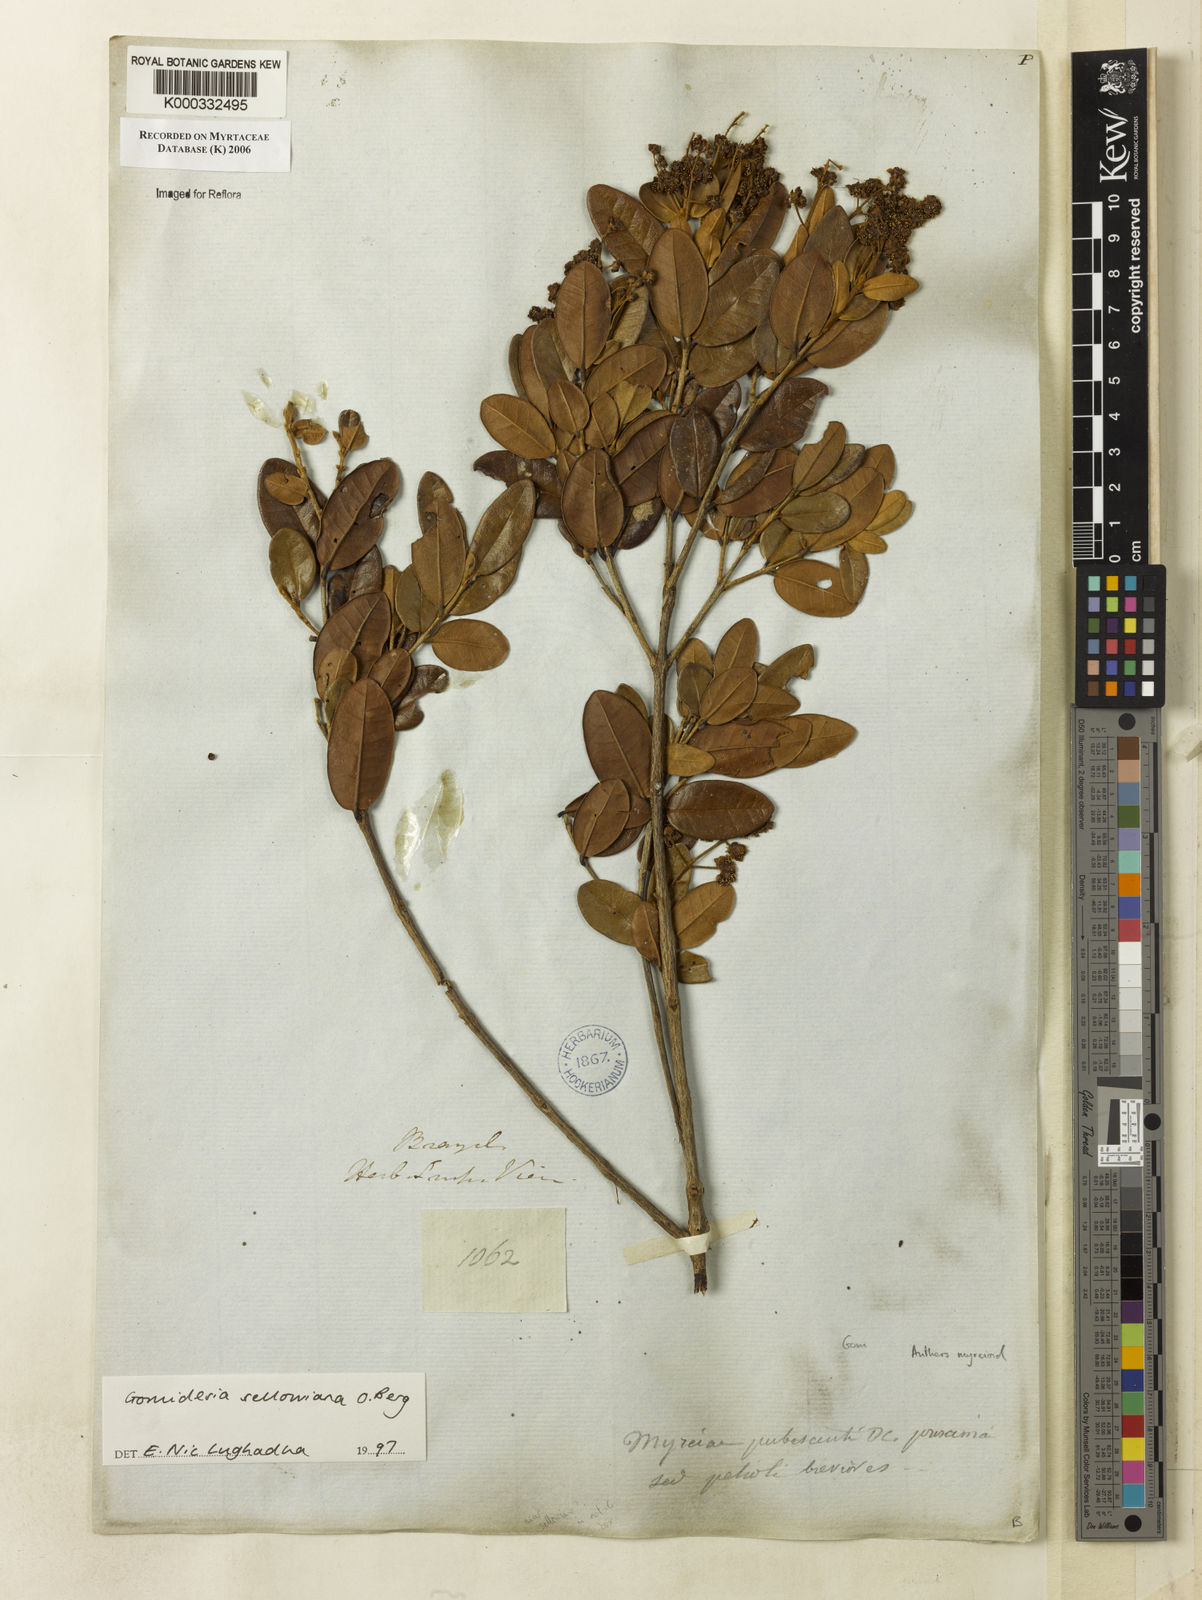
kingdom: Plantae
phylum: Tracheophyta
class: Magnoliopsida
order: Myrtales
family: Myrtaceae
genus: Myrcia
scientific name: Myrcia hartwegiana
